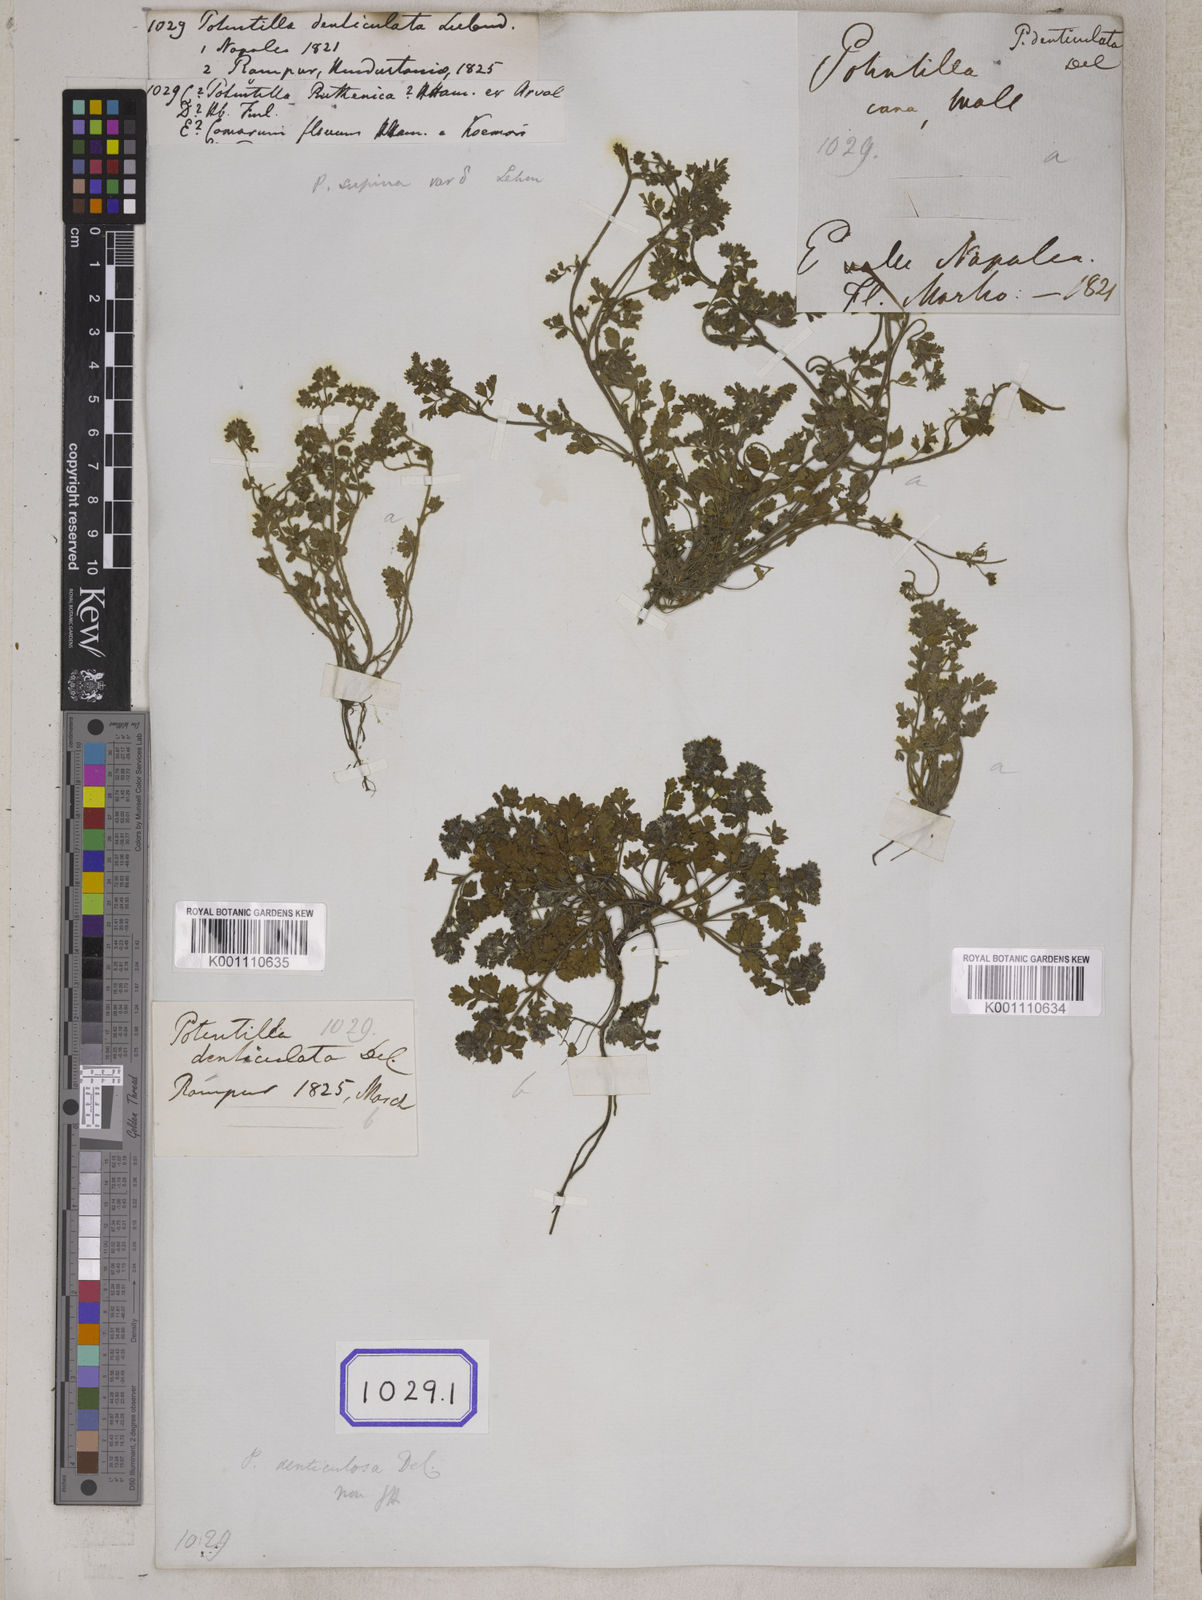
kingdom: Plantae
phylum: Tracheophyta
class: Magnoliopsida
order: Rosales
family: Rosaceae
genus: Potentilla
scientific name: Potentilla supina
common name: Prostrate cinquefoil
